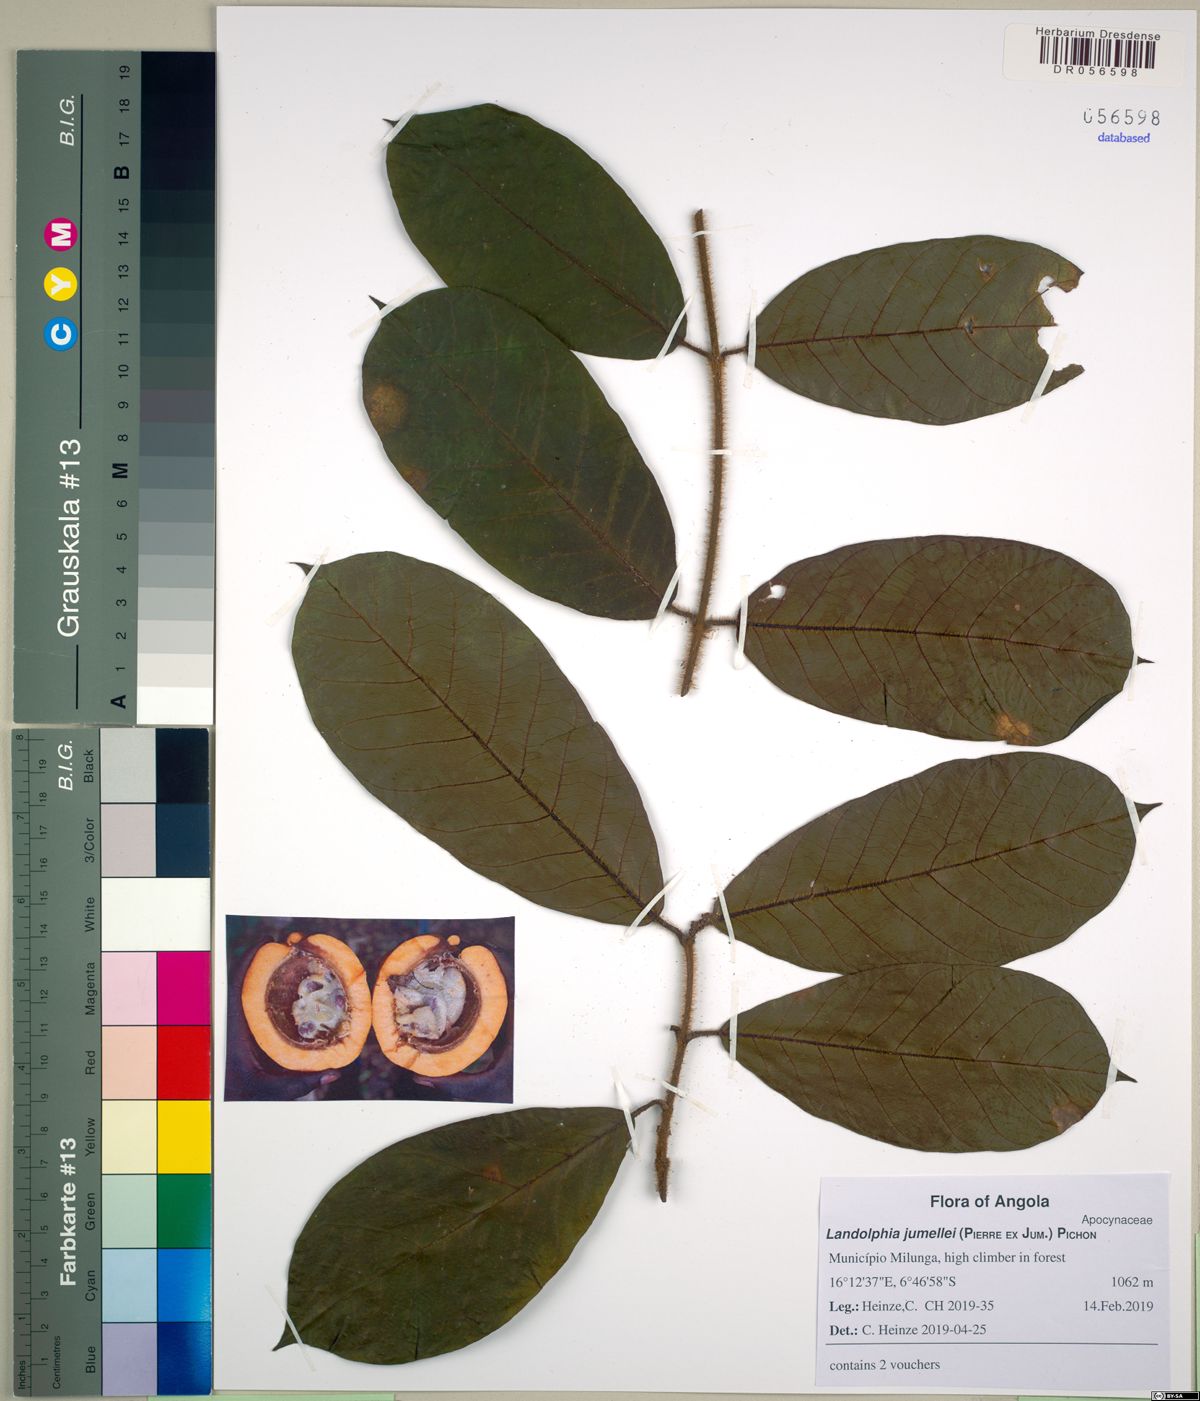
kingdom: Plantae
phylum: Tracheophyta
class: Magnoliopsida
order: Gentianales
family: Apocynaceae
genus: Landolphia
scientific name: Landolphia villosa
